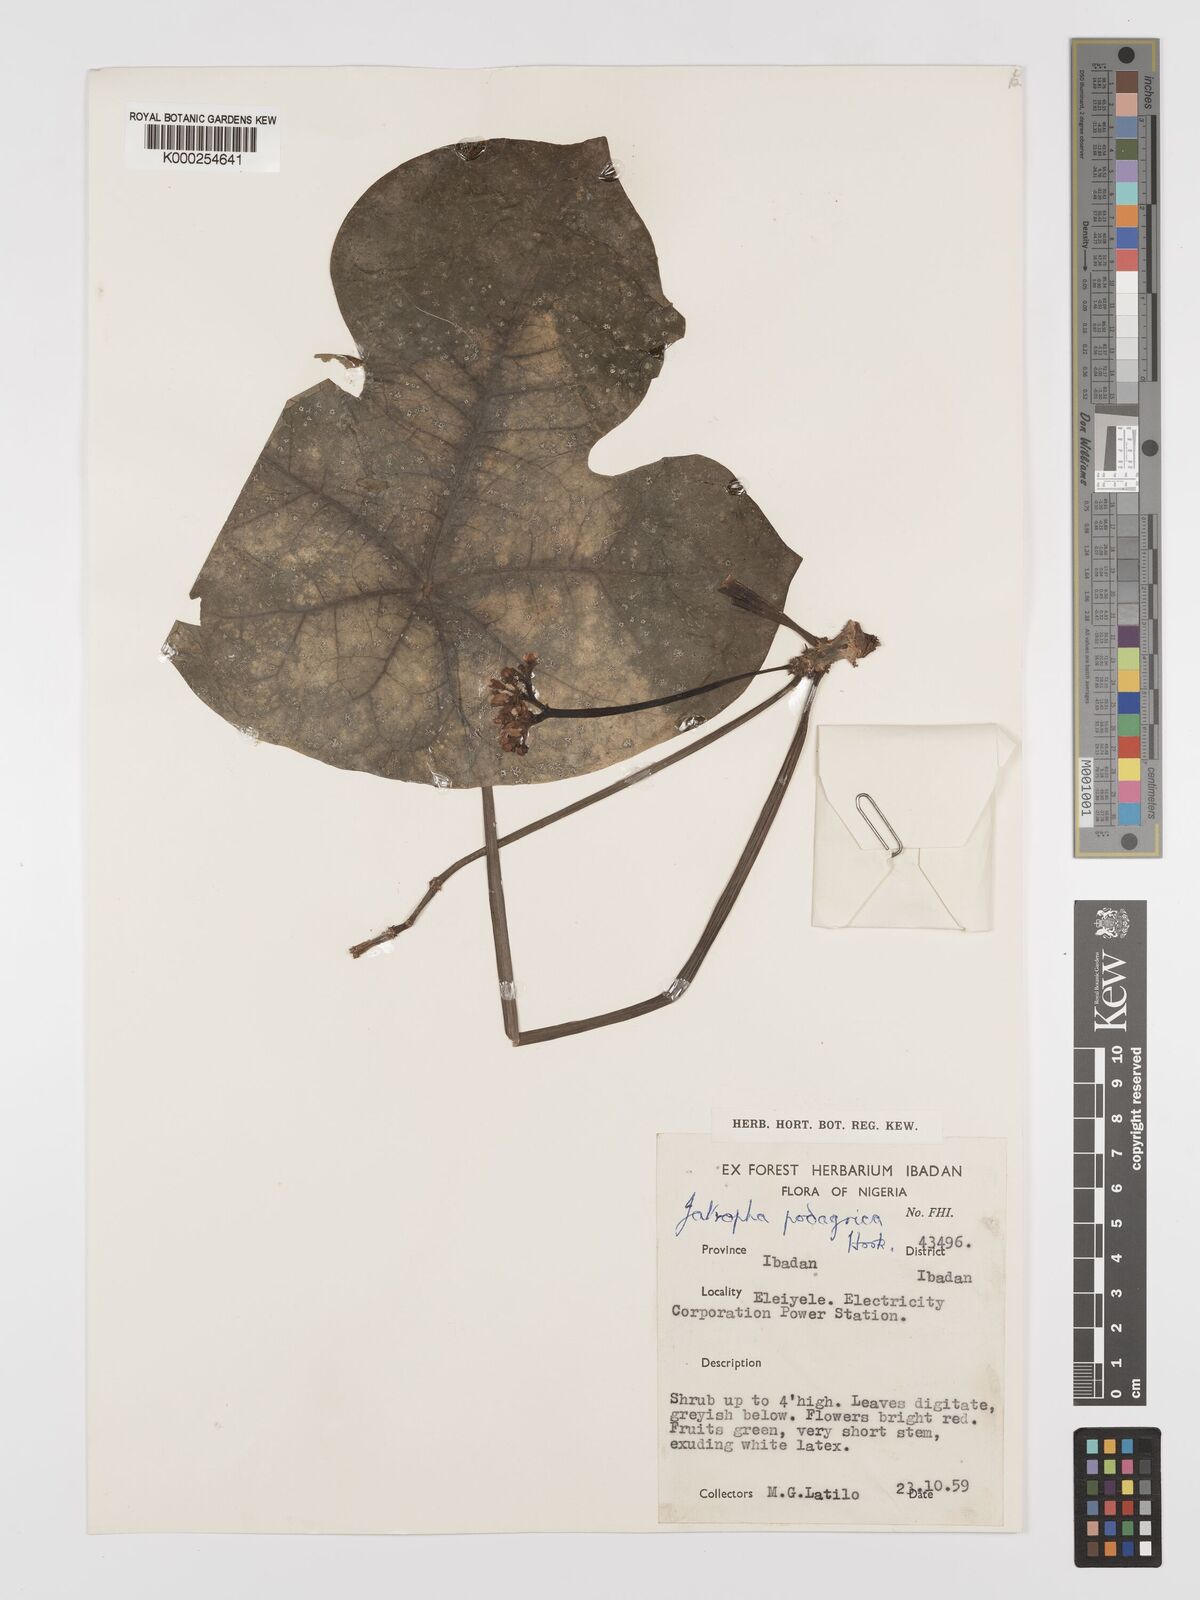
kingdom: Plantae
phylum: Tracheophyta
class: Magnoliopsida
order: Malpighiales
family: Euphorbiaceae
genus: Jatropha
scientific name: Jatropha podagrica
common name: Gout stalk
